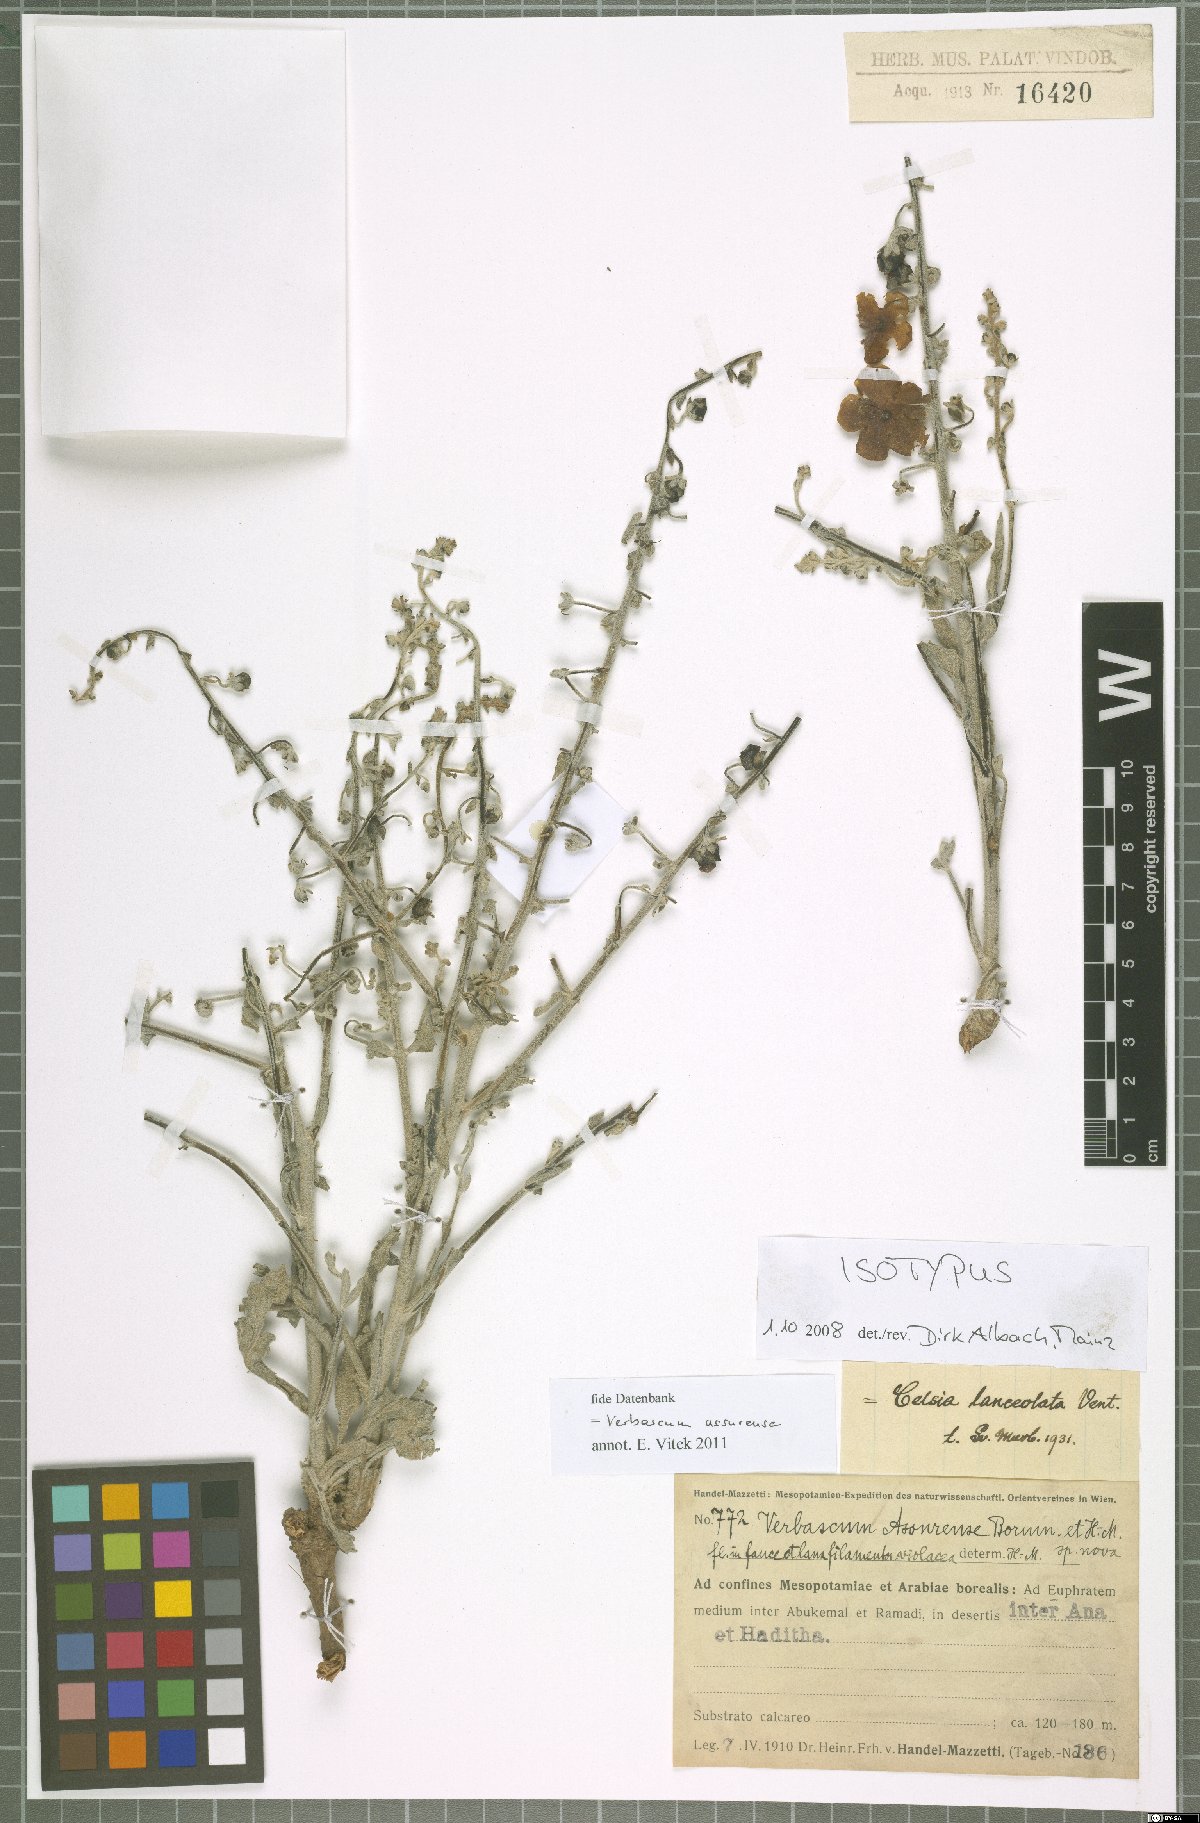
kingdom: Plantae
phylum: Tracheophyta
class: Magnoliopsida
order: Lamiales
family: Scrophulariaceae
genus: Verbascum
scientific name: Verbascum assurense
